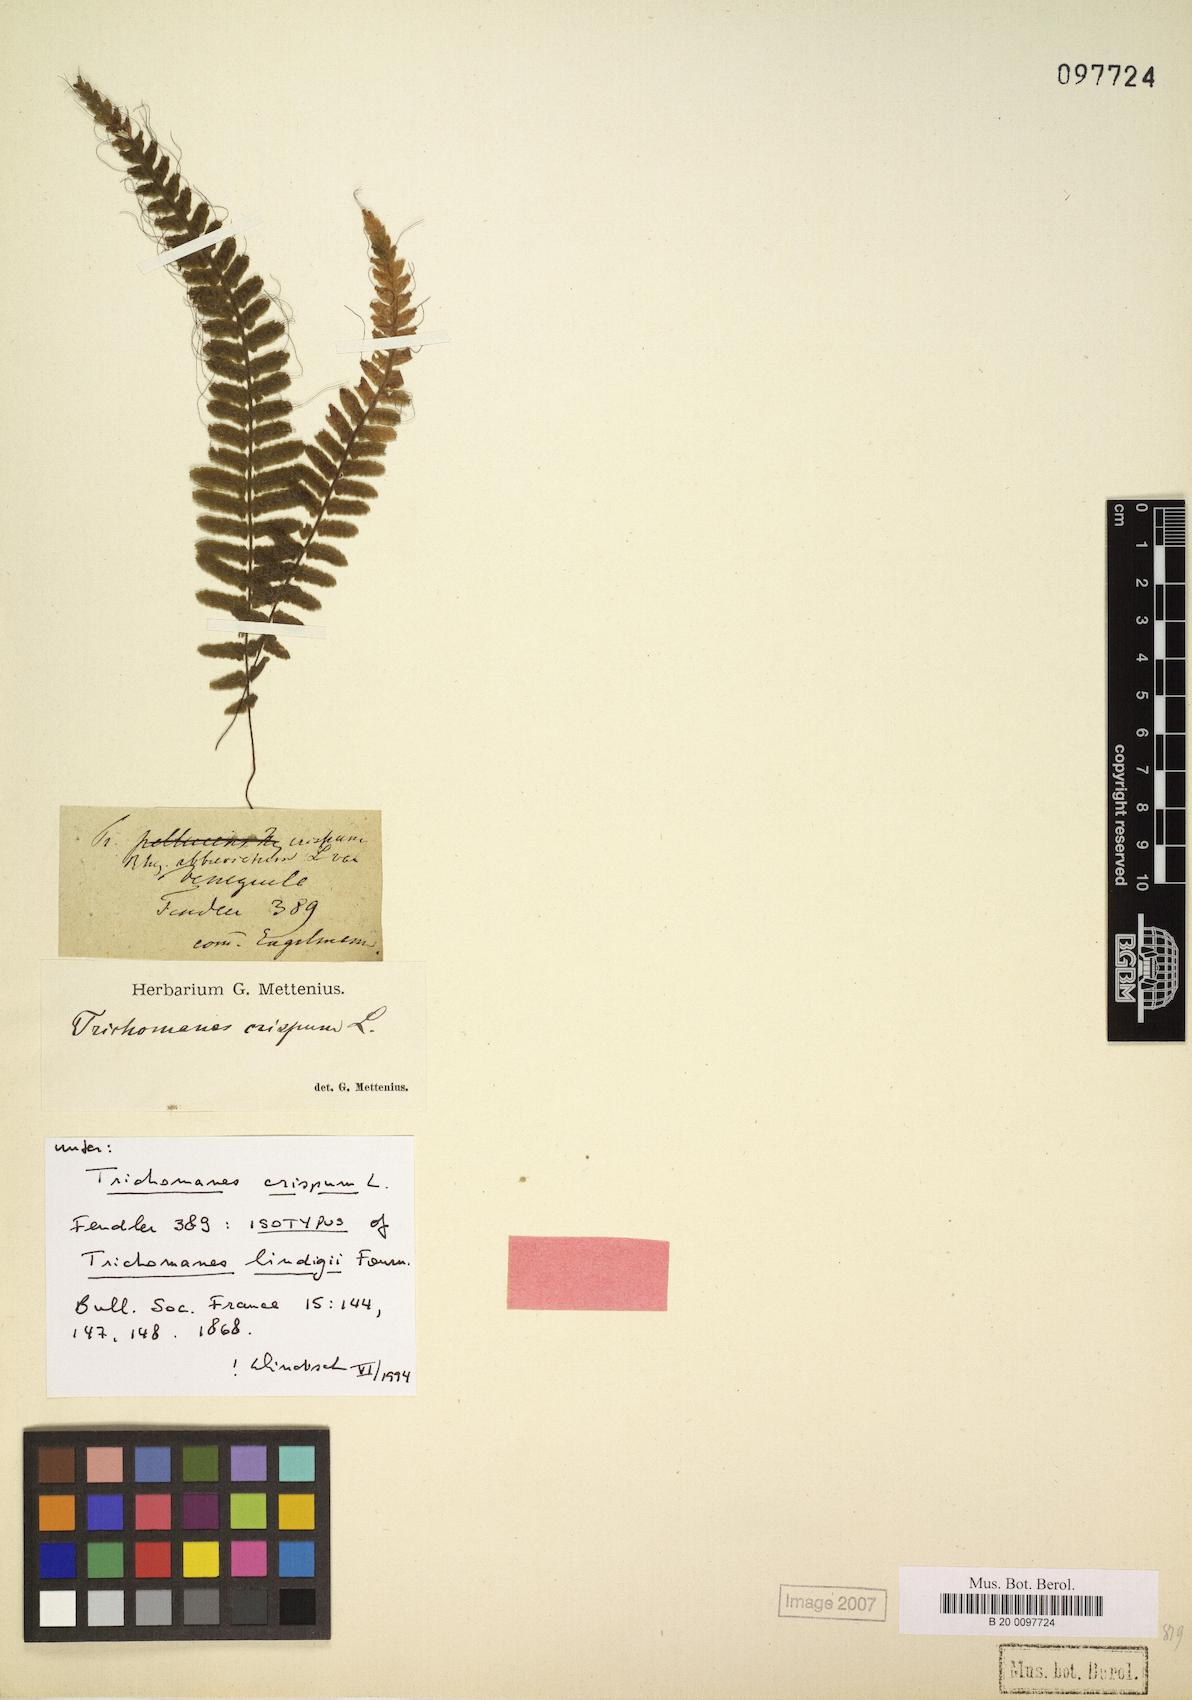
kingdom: Plantae
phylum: Tracheophyta
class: Polypodiopsida
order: Hymenophyllales
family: Hymenophyllaceae
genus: Trichomanes
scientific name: Trichomanes crispum
